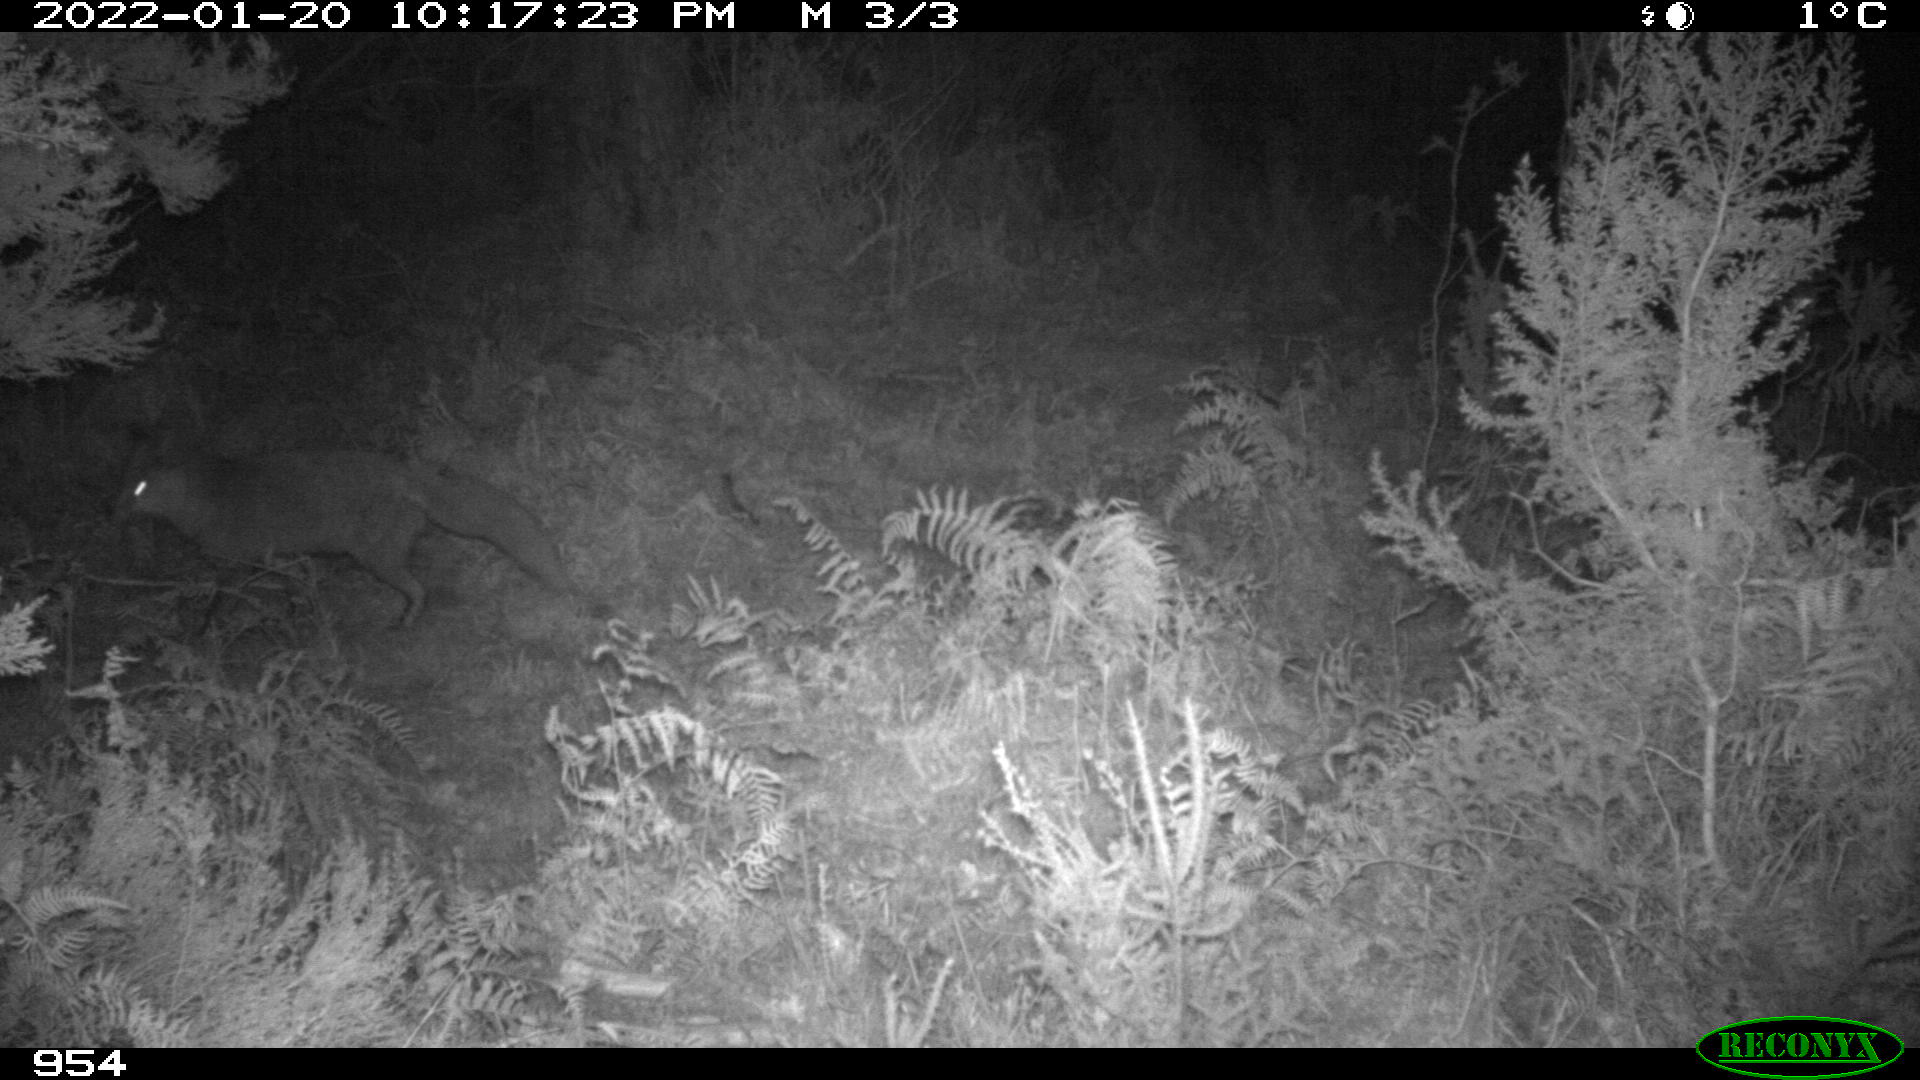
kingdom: Animalia
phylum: Chordata
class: Mammalia
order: Carnivora
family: Canidae
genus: Vulpes
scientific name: Vulpes vulpes
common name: Red fox
